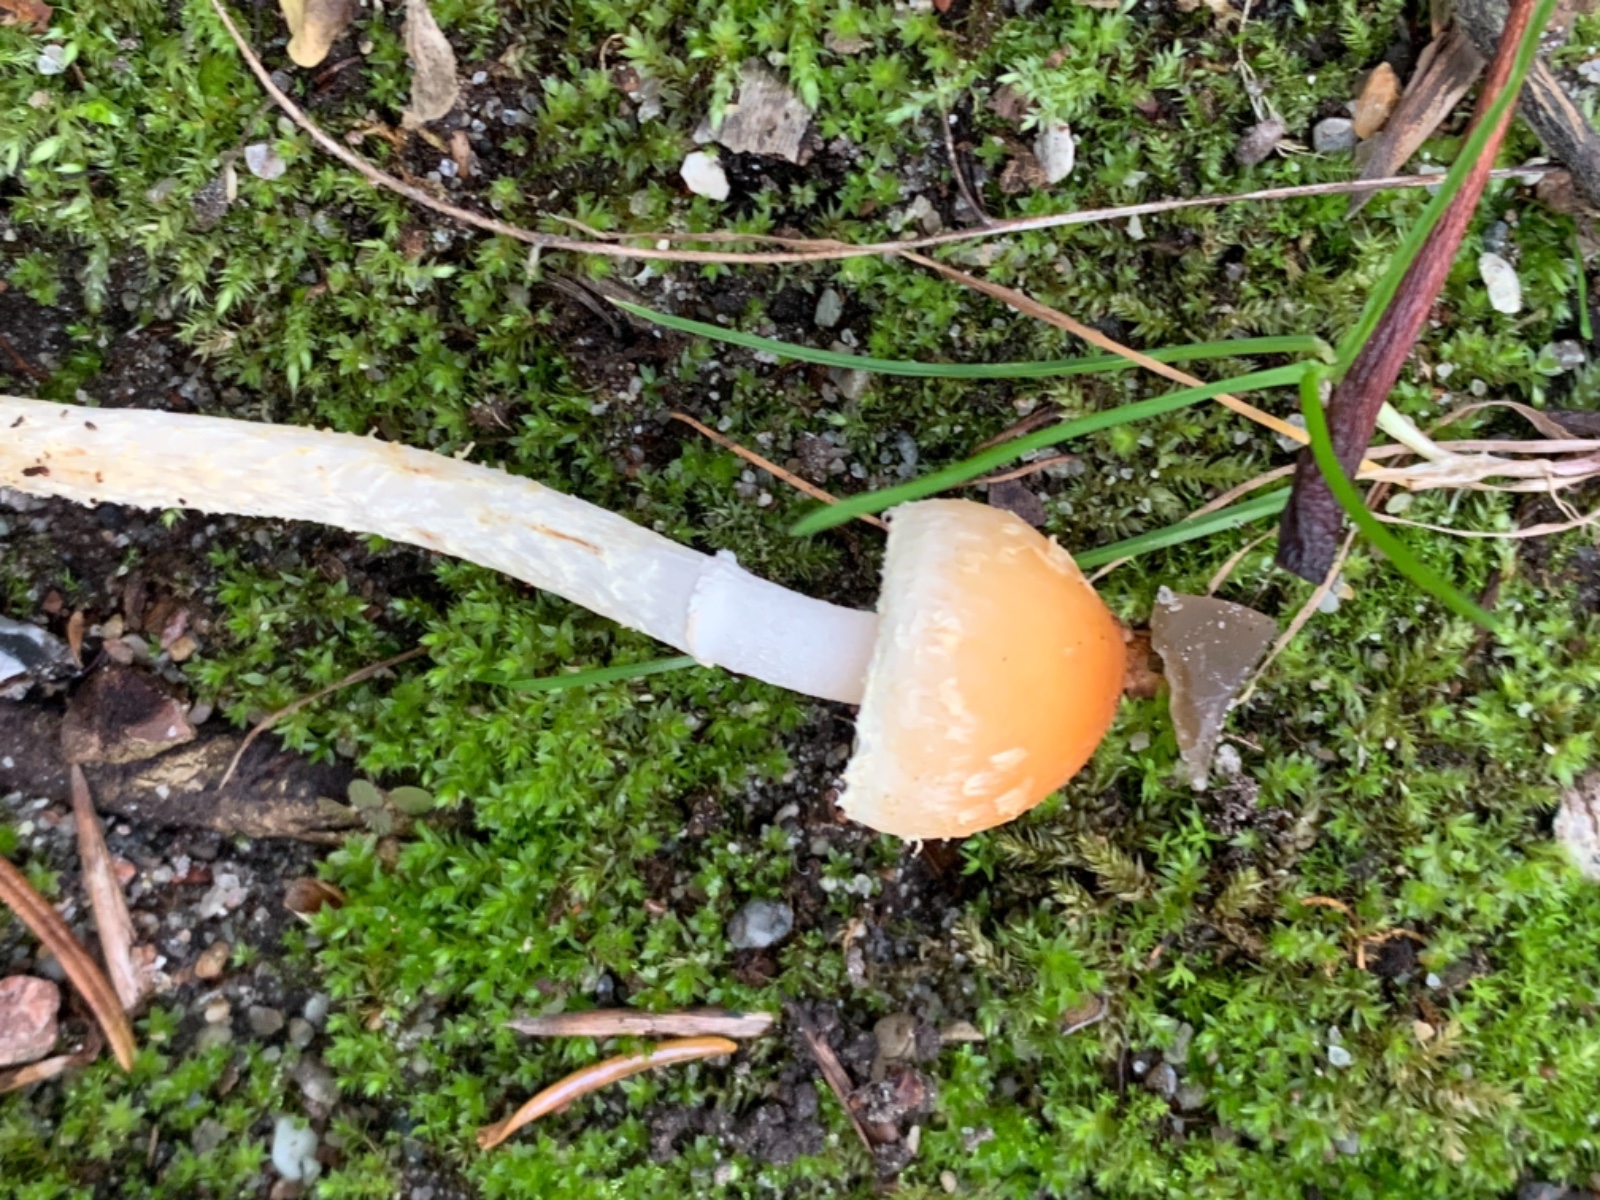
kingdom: Fungi
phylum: Basidiomycota
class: Agaricomycetes
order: Agaricales
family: Strophariaceae
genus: Hypholoma
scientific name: Hypholoma marginatum
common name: enlig svovlhat
